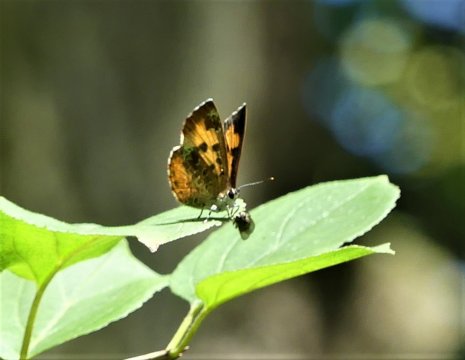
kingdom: Animalia
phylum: Arthropoda
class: Insecta
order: Lepidoptera
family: Lycaenidae
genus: Feniseca
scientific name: Feniseca tarquinius
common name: Harvester
